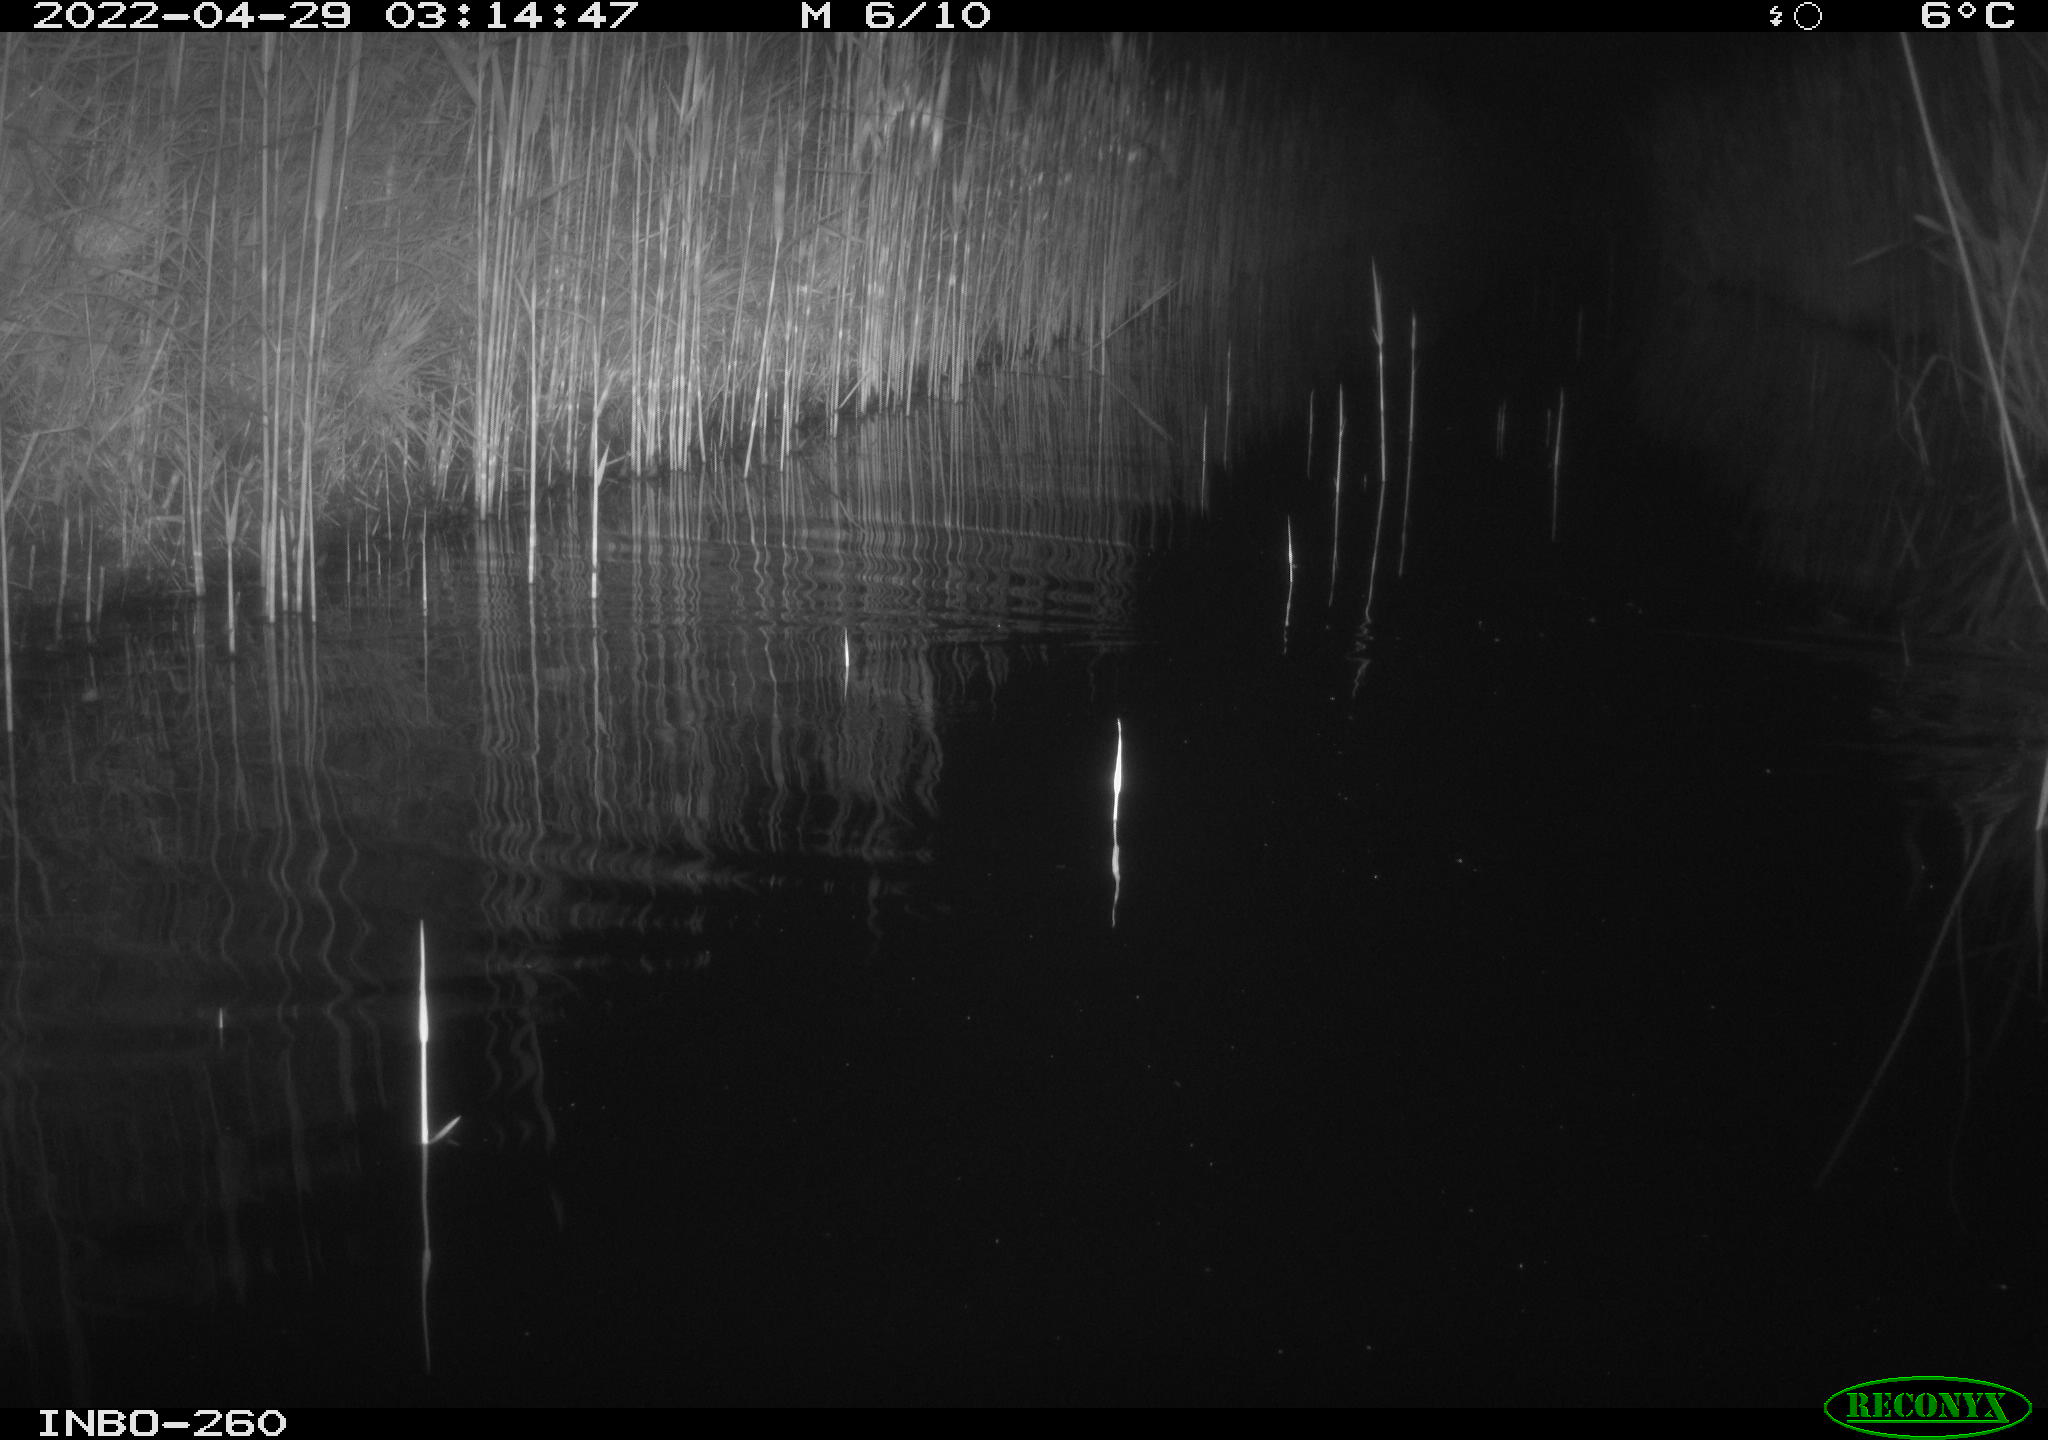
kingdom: Animalia
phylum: Chordata
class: Mammalia
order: Rodentia
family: Muridae
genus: Rattus
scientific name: Rattus norvegicus
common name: Brown rat
